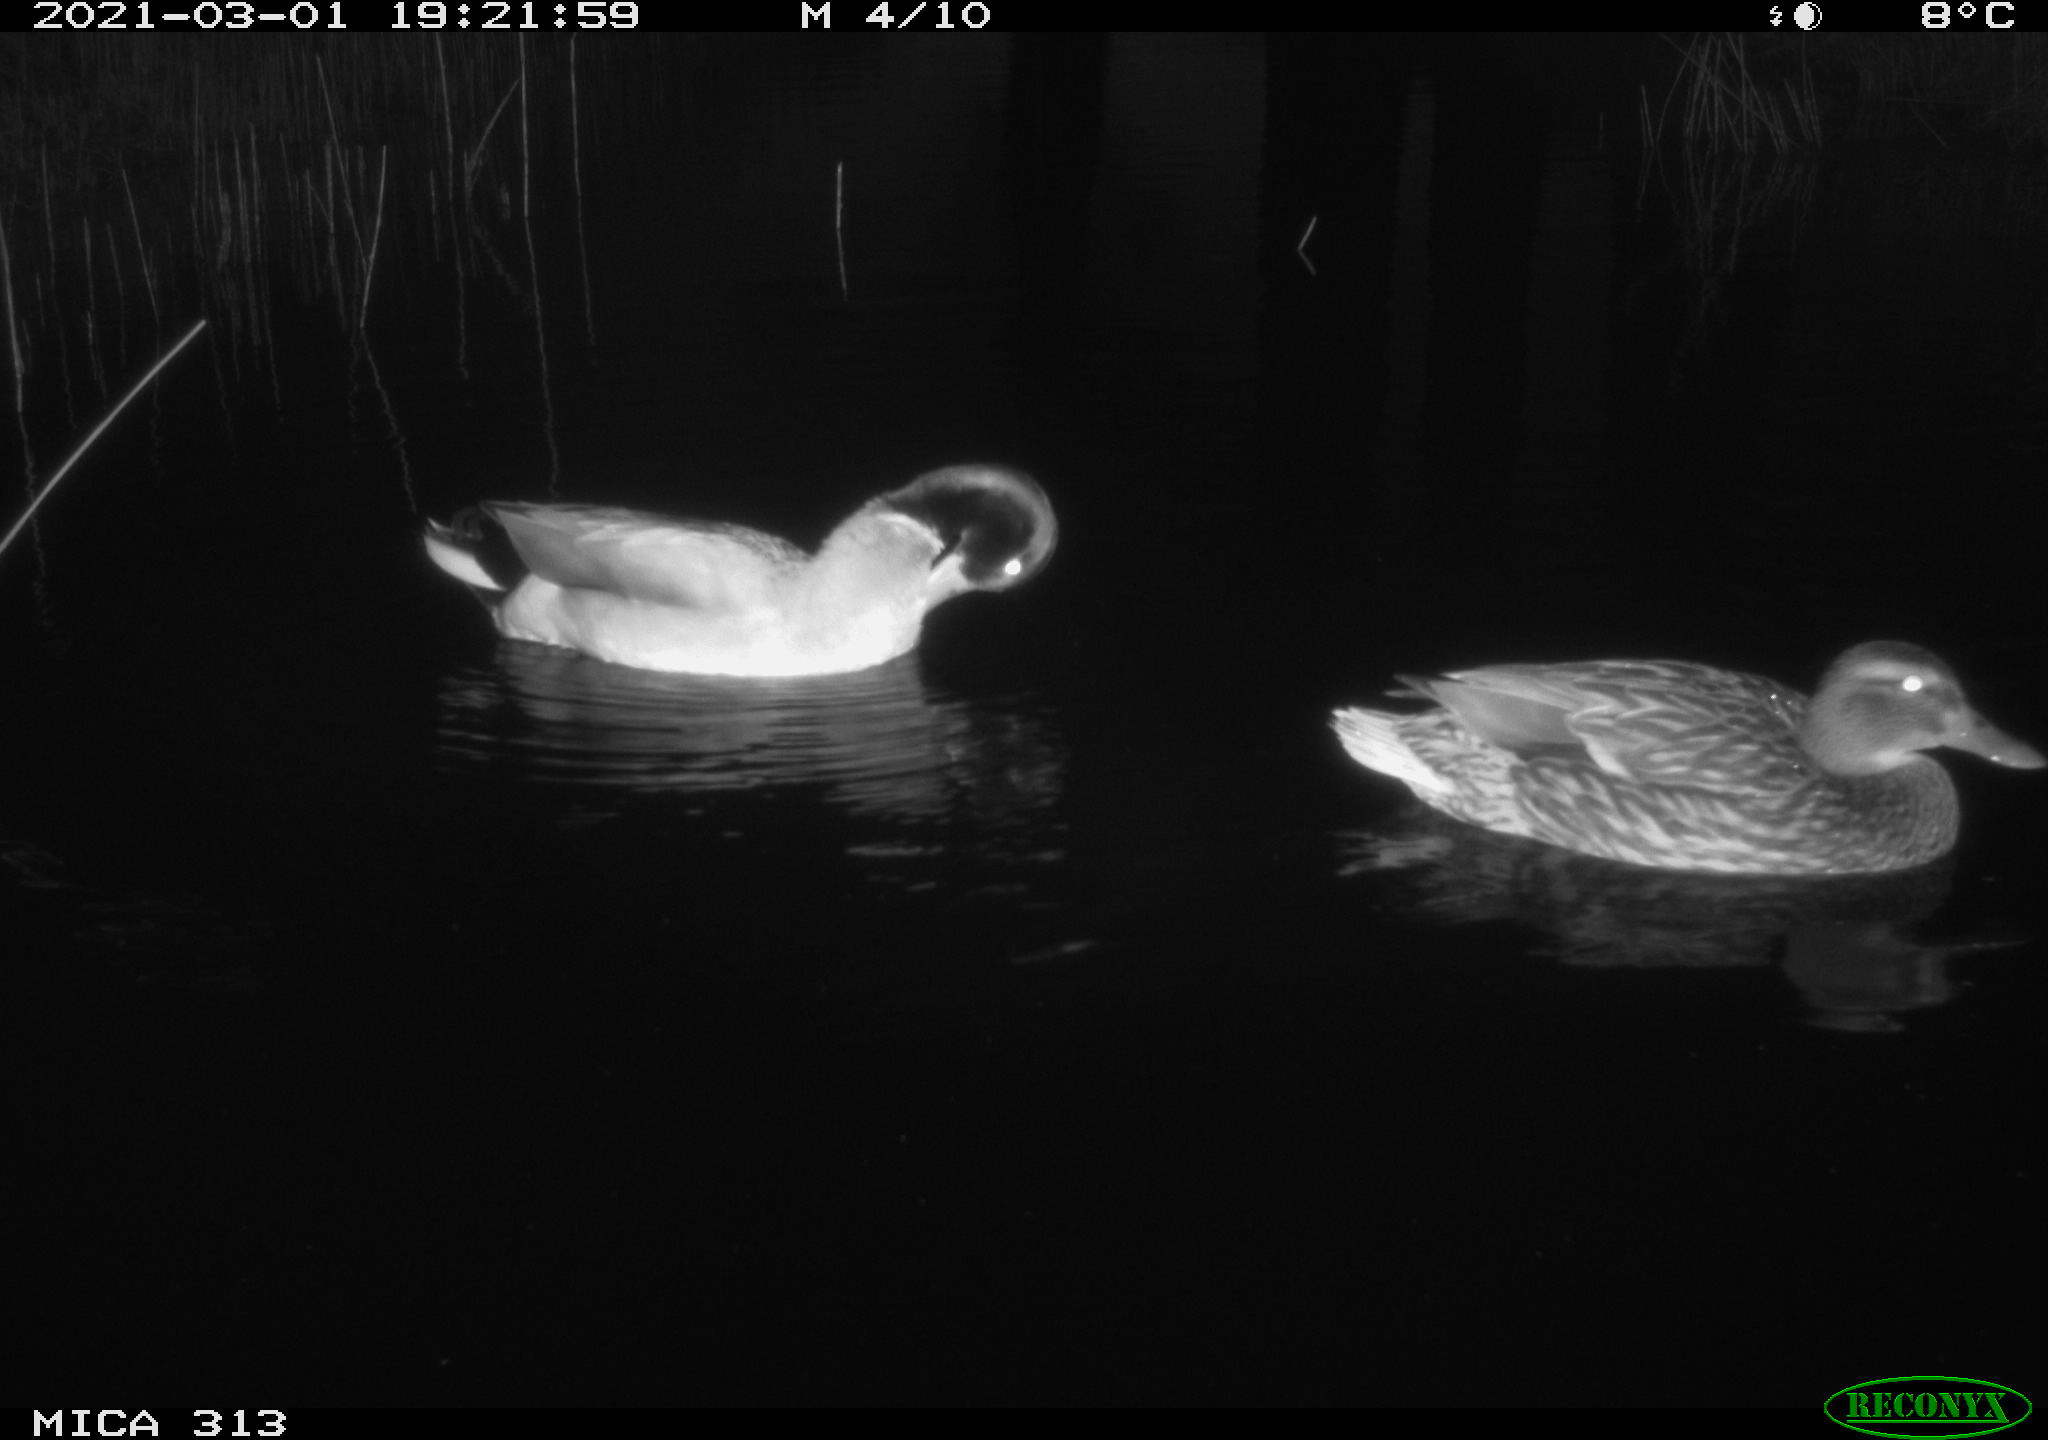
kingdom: Animalia
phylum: Chordata
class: Aves
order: Anseriformes
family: Anatidae
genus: Anas
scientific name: Anas
